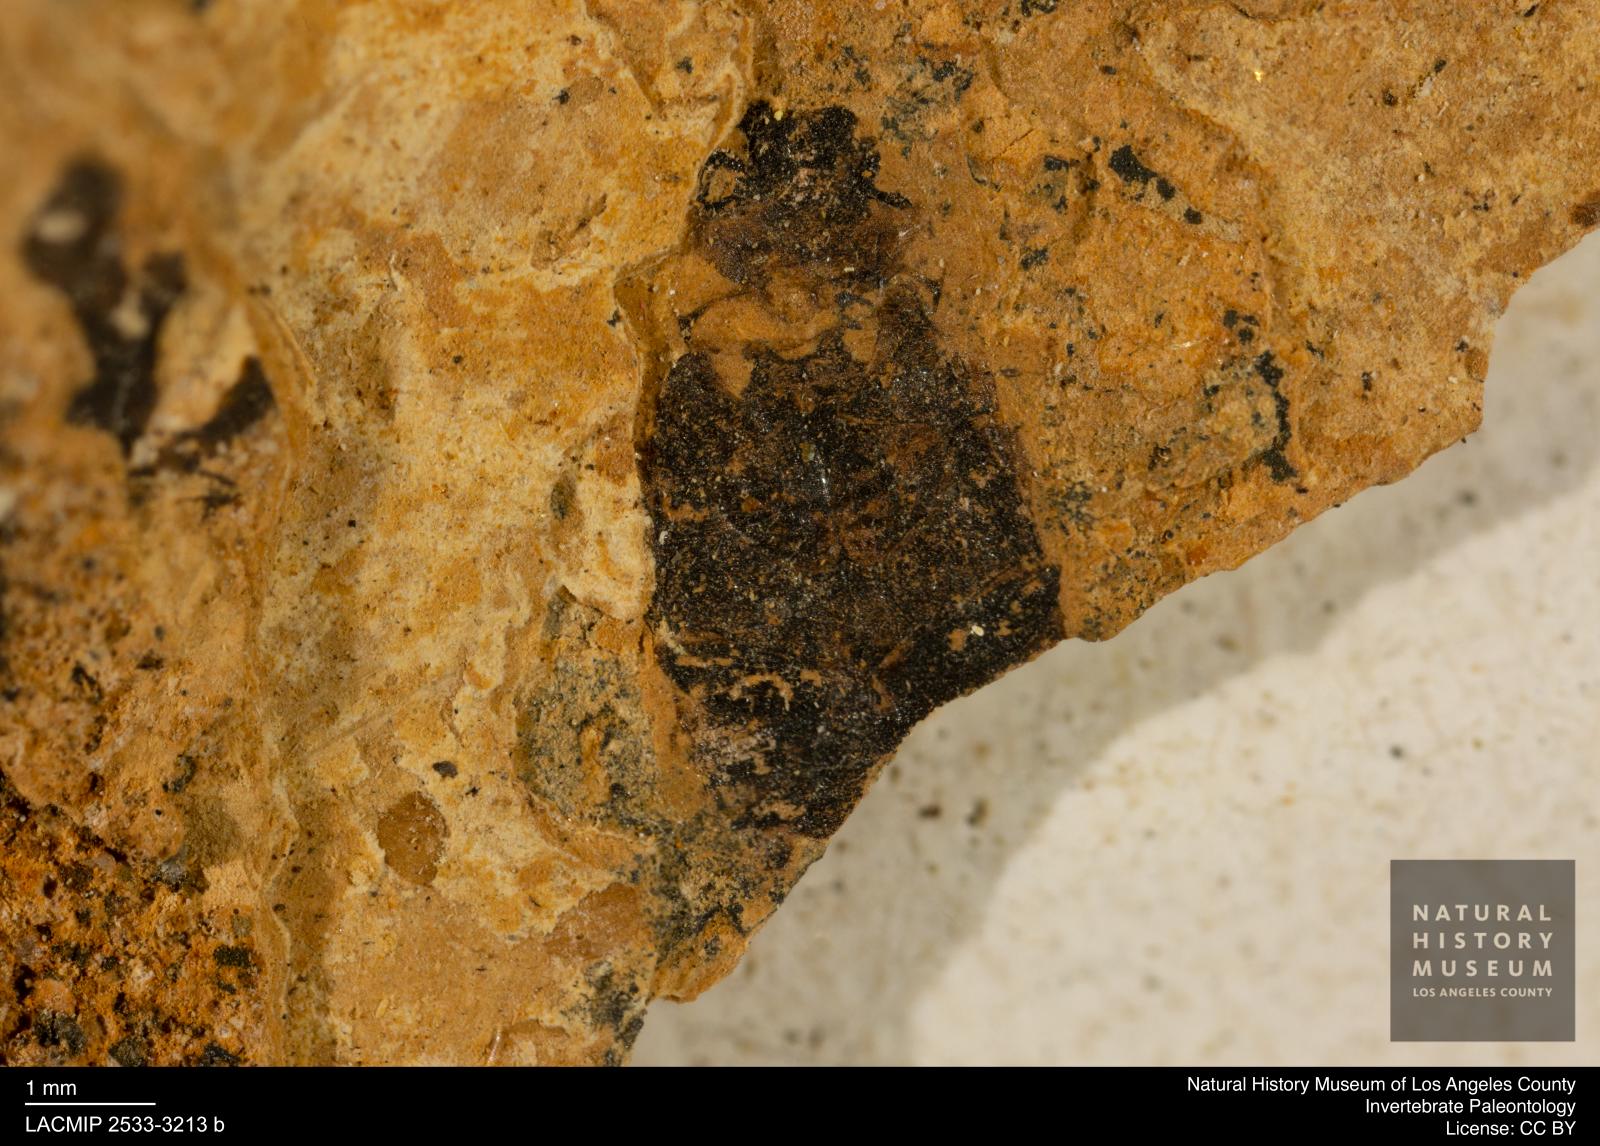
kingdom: Animalia
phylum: Arthropoda
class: Insecta
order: Coleoptera
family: Hydrophilidae
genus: Berosus
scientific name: Berosus morticinus
